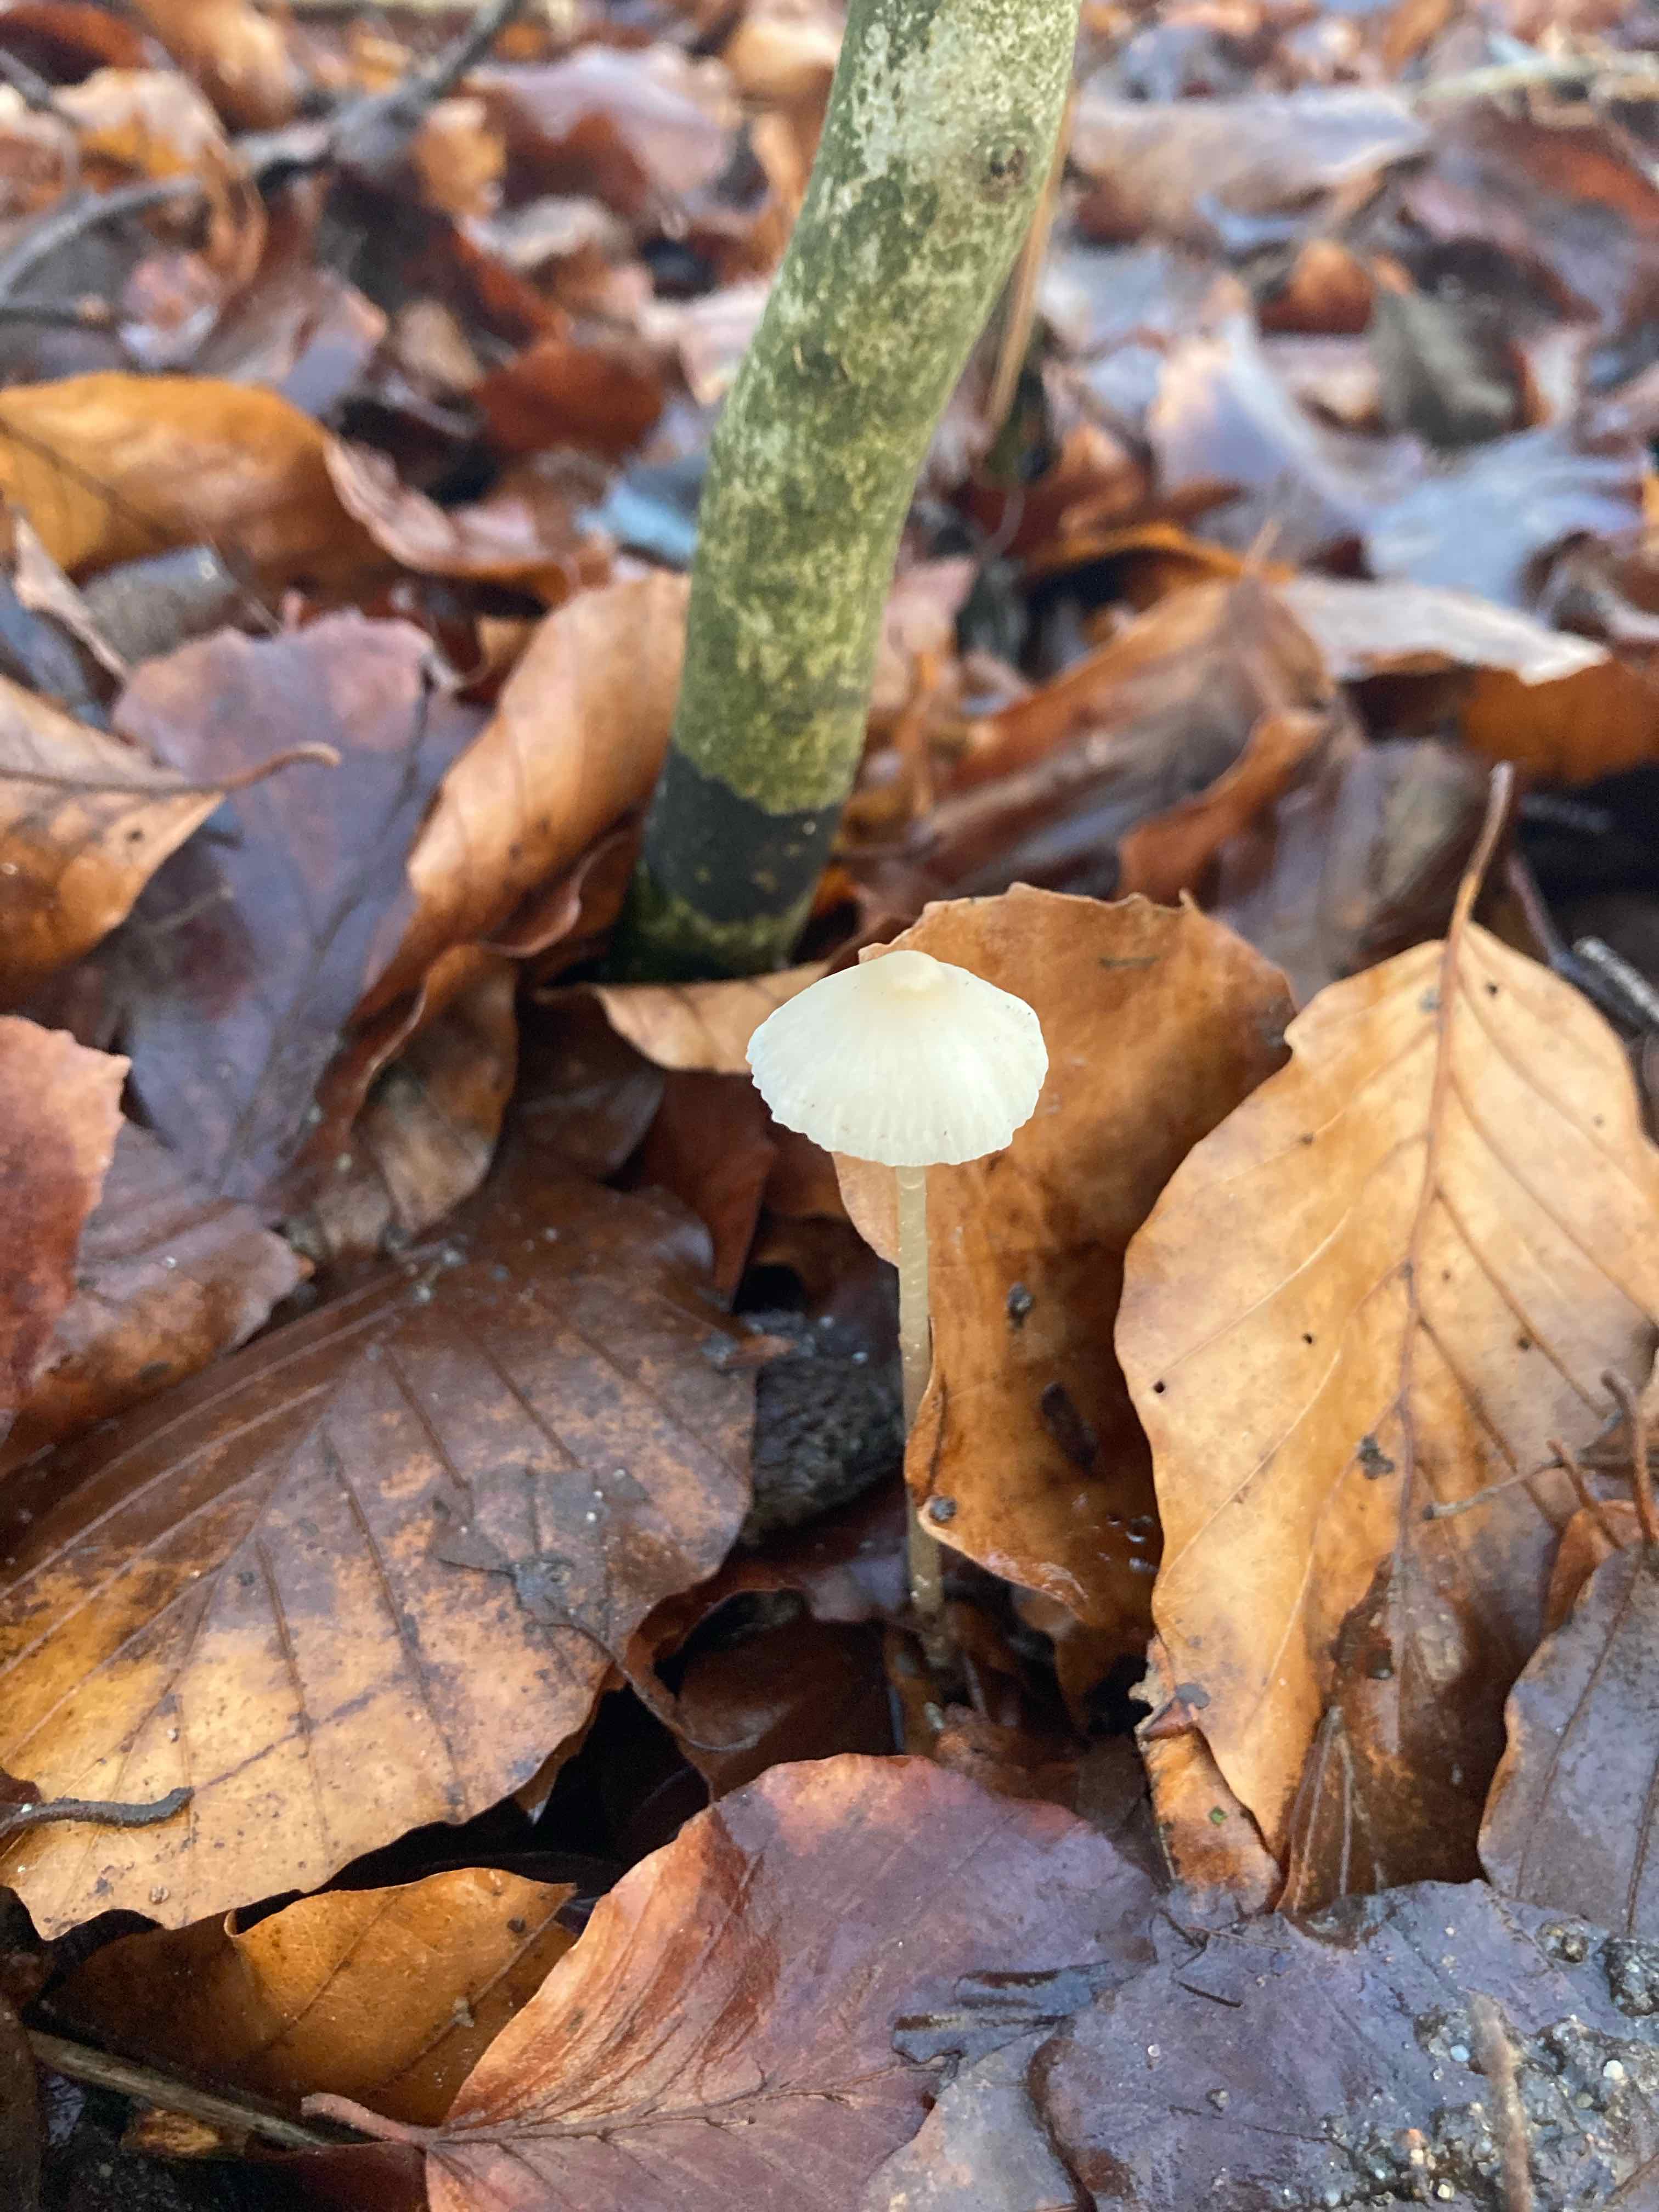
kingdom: Fungi
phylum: Basidiomycota
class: Agaricomycetes
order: Agaricales
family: Mycenaceae
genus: Mycena
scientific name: Mycena
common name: huesvamp
